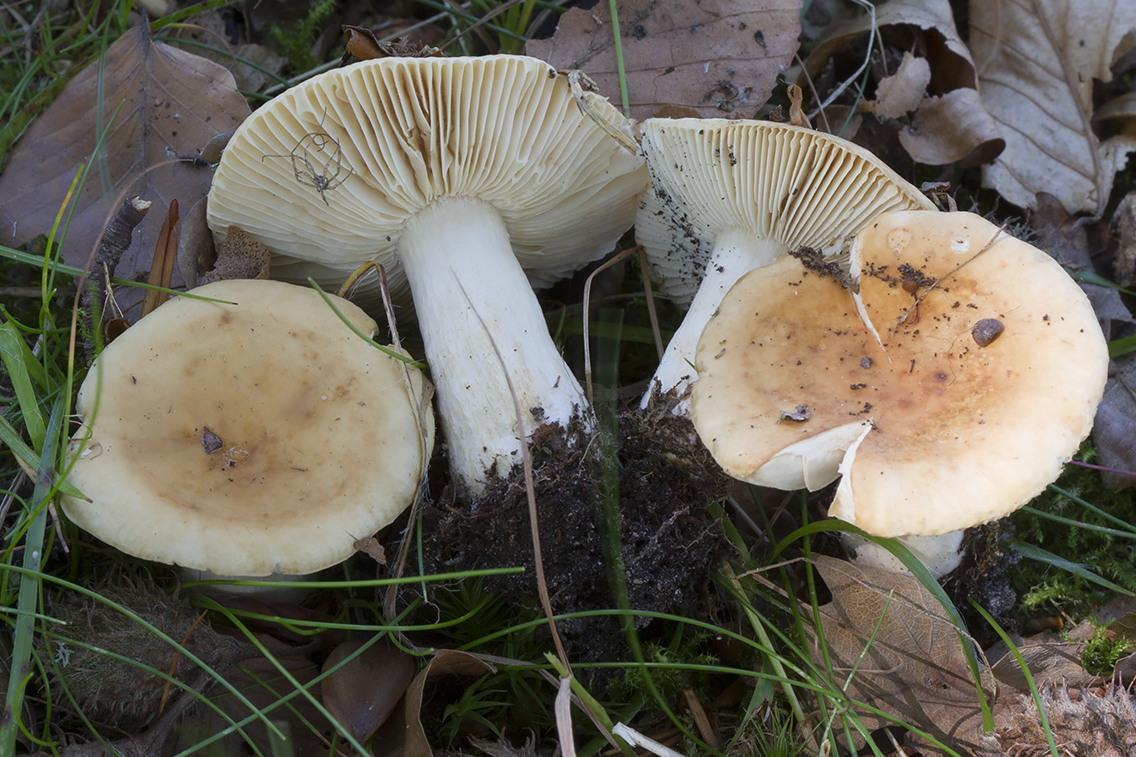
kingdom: Fungi
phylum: Basidiomycota
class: Agaricomycetes
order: Russulales
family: Russulaceae
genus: Russula
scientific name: Russula
